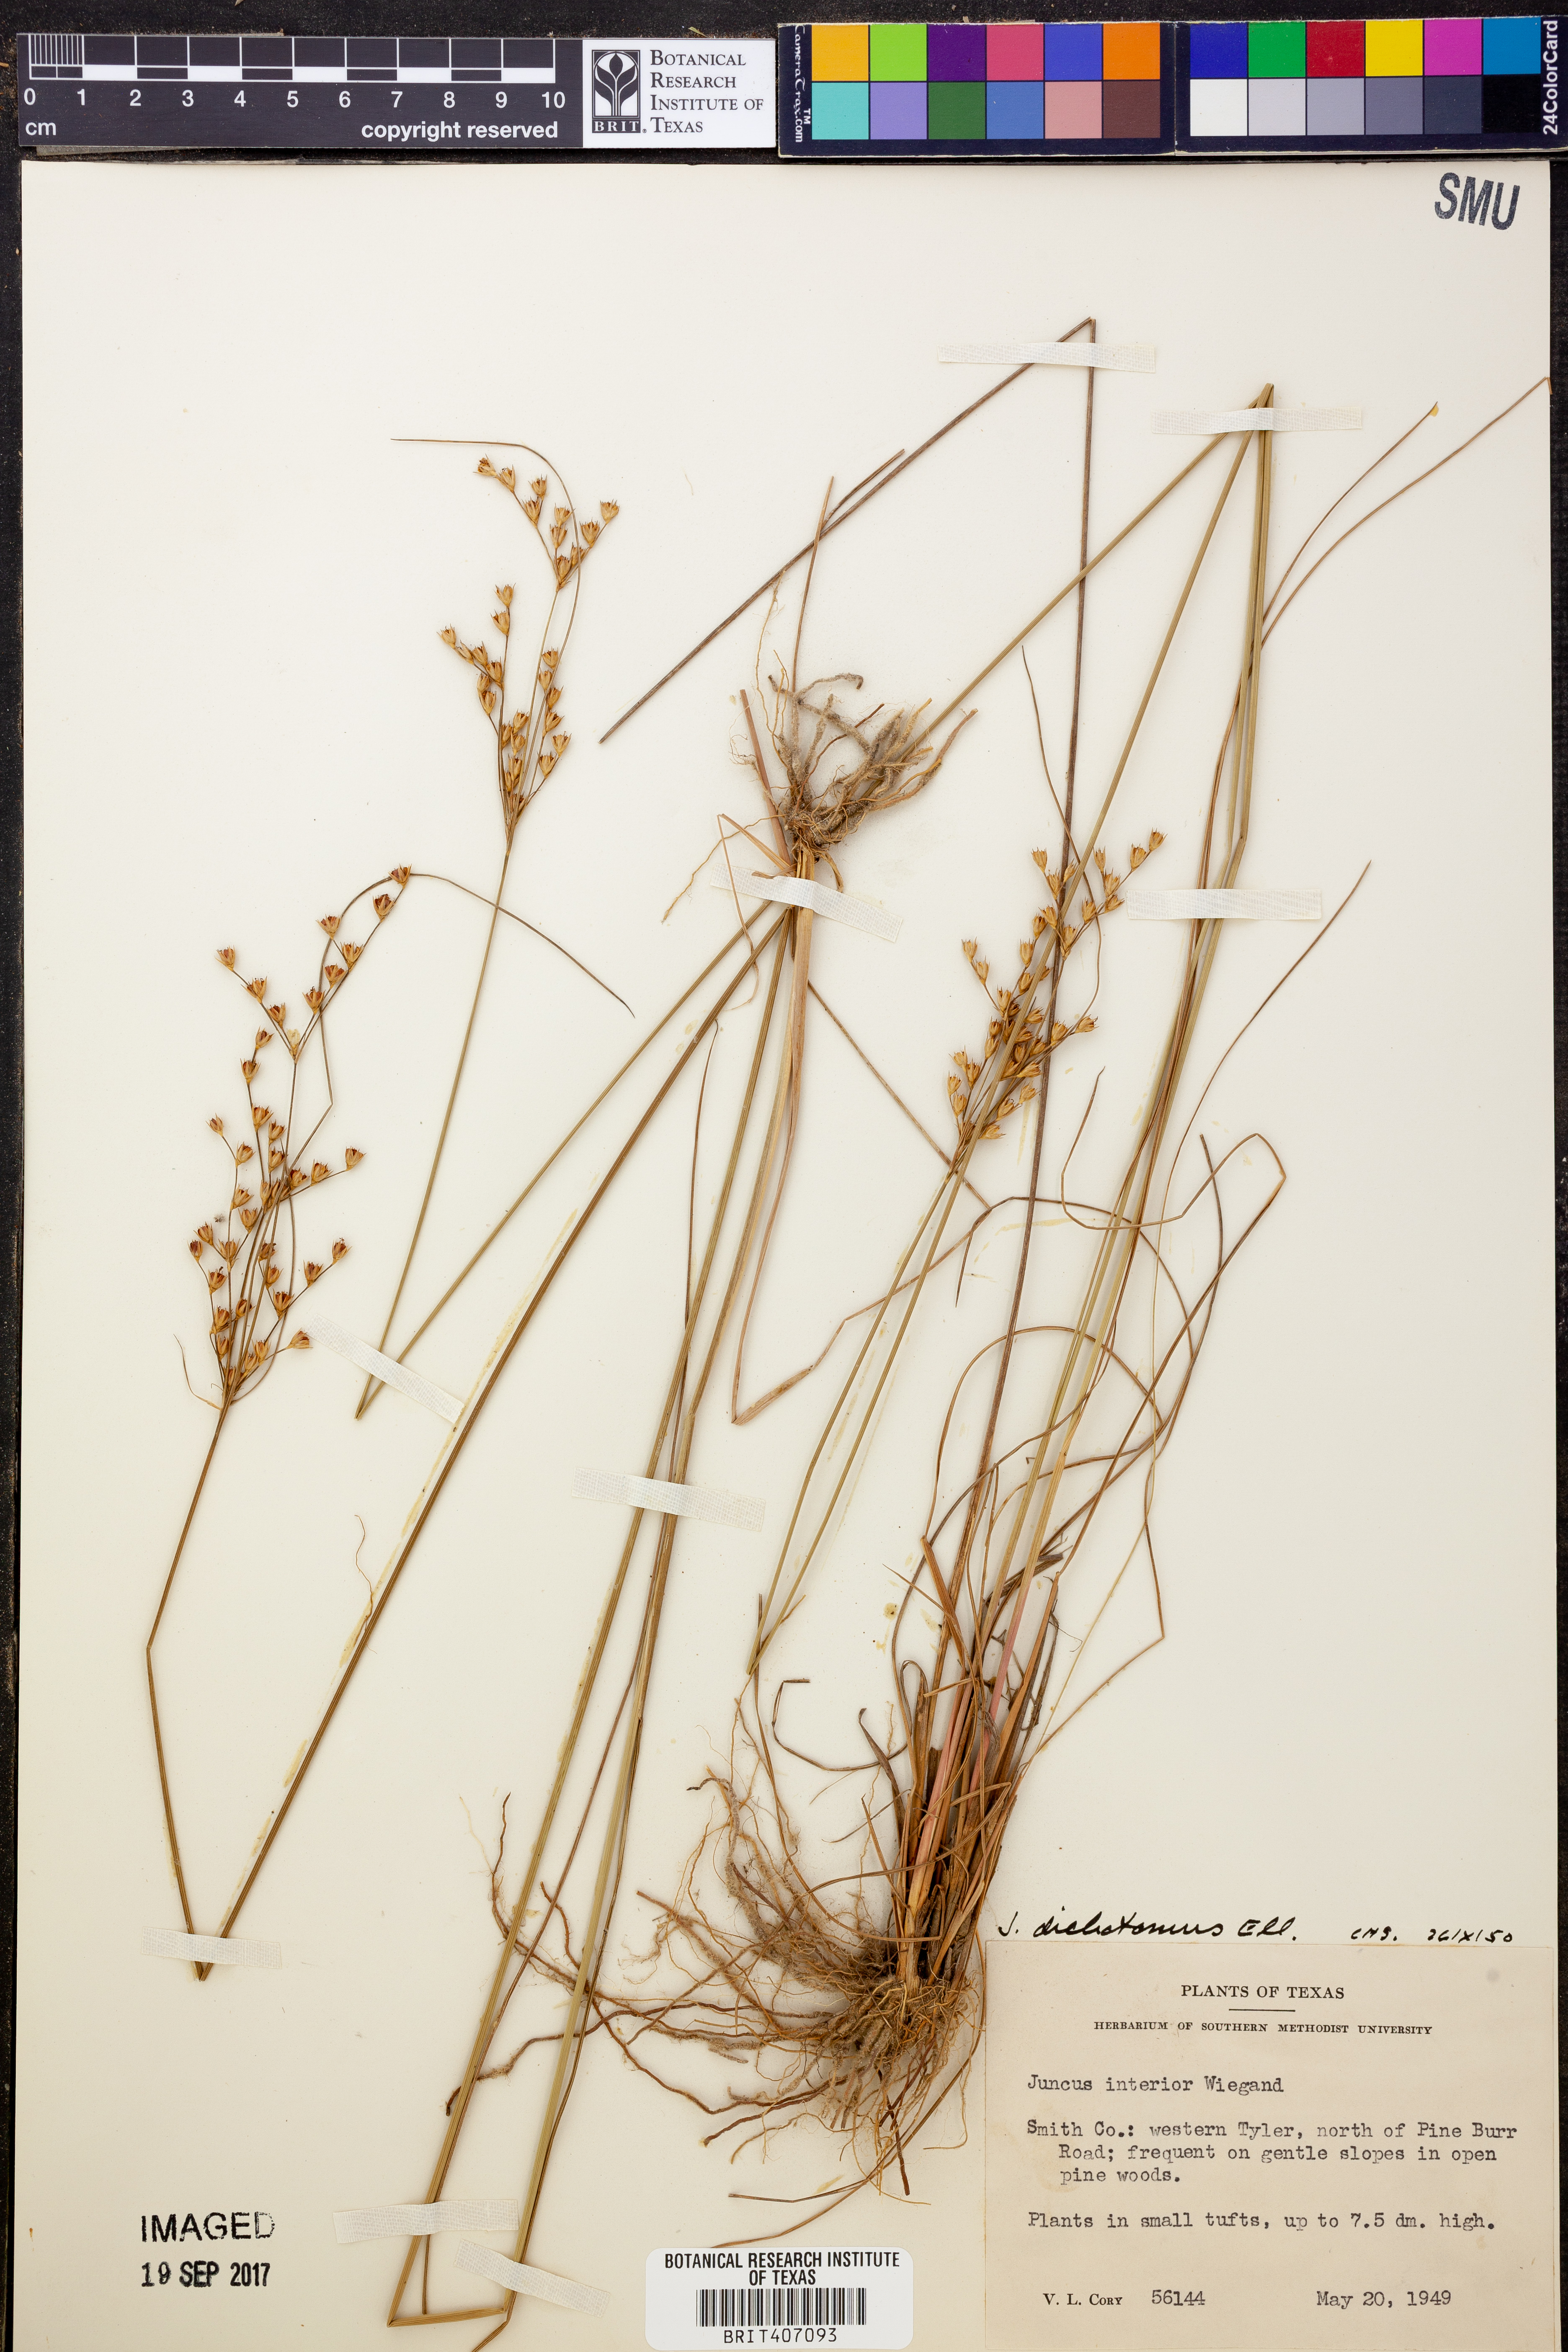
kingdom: Plantae
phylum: Tracheophyta
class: Liliopsida
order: Poales
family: Juncaceae
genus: Juncus
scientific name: Juncus dichotomus
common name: Forked rush
